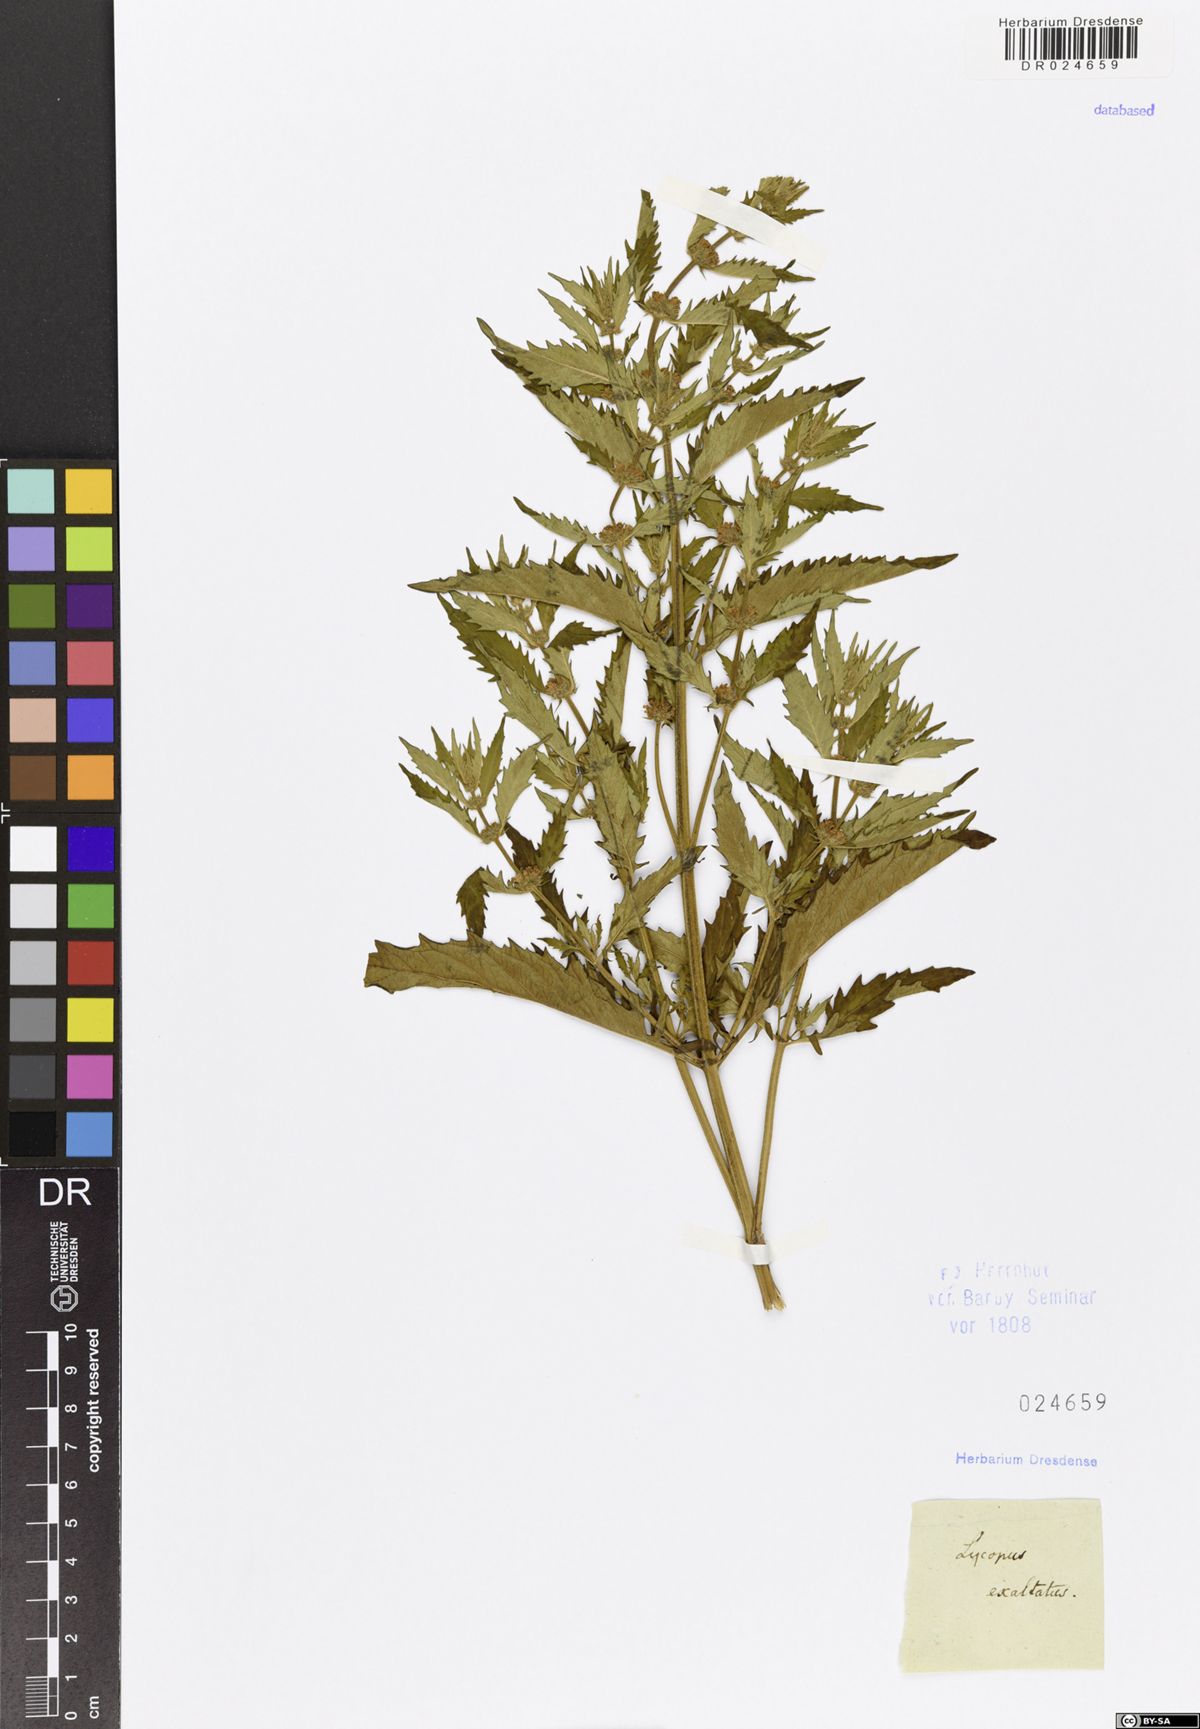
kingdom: Plantae
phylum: Tracheophyta
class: Magnoliopsida
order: Lamiales
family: Lamiaceae
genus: Lycopus
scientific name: Lycopus exaltatus
